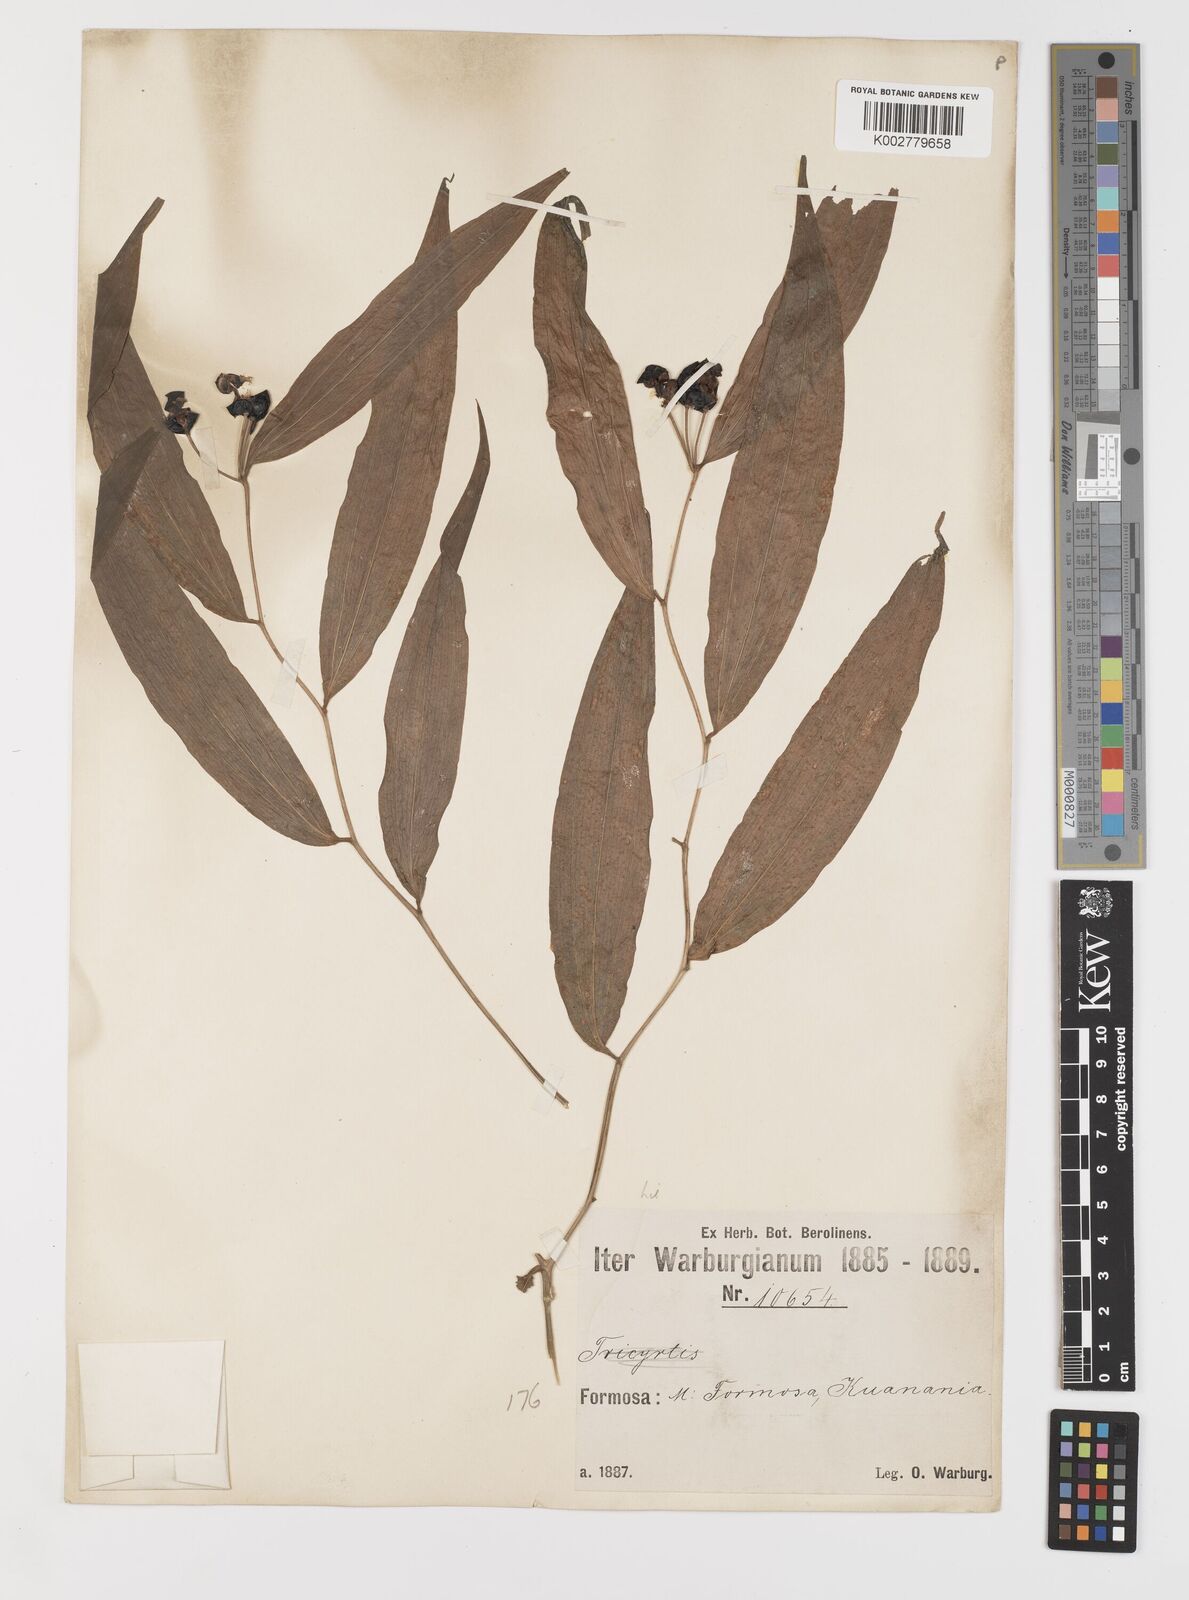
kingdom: Plantae
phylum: Tracheophyta
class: Liliopsida
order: Liliales
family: Colchicaceae
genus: Disporum
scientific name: Disporum cantoniense
